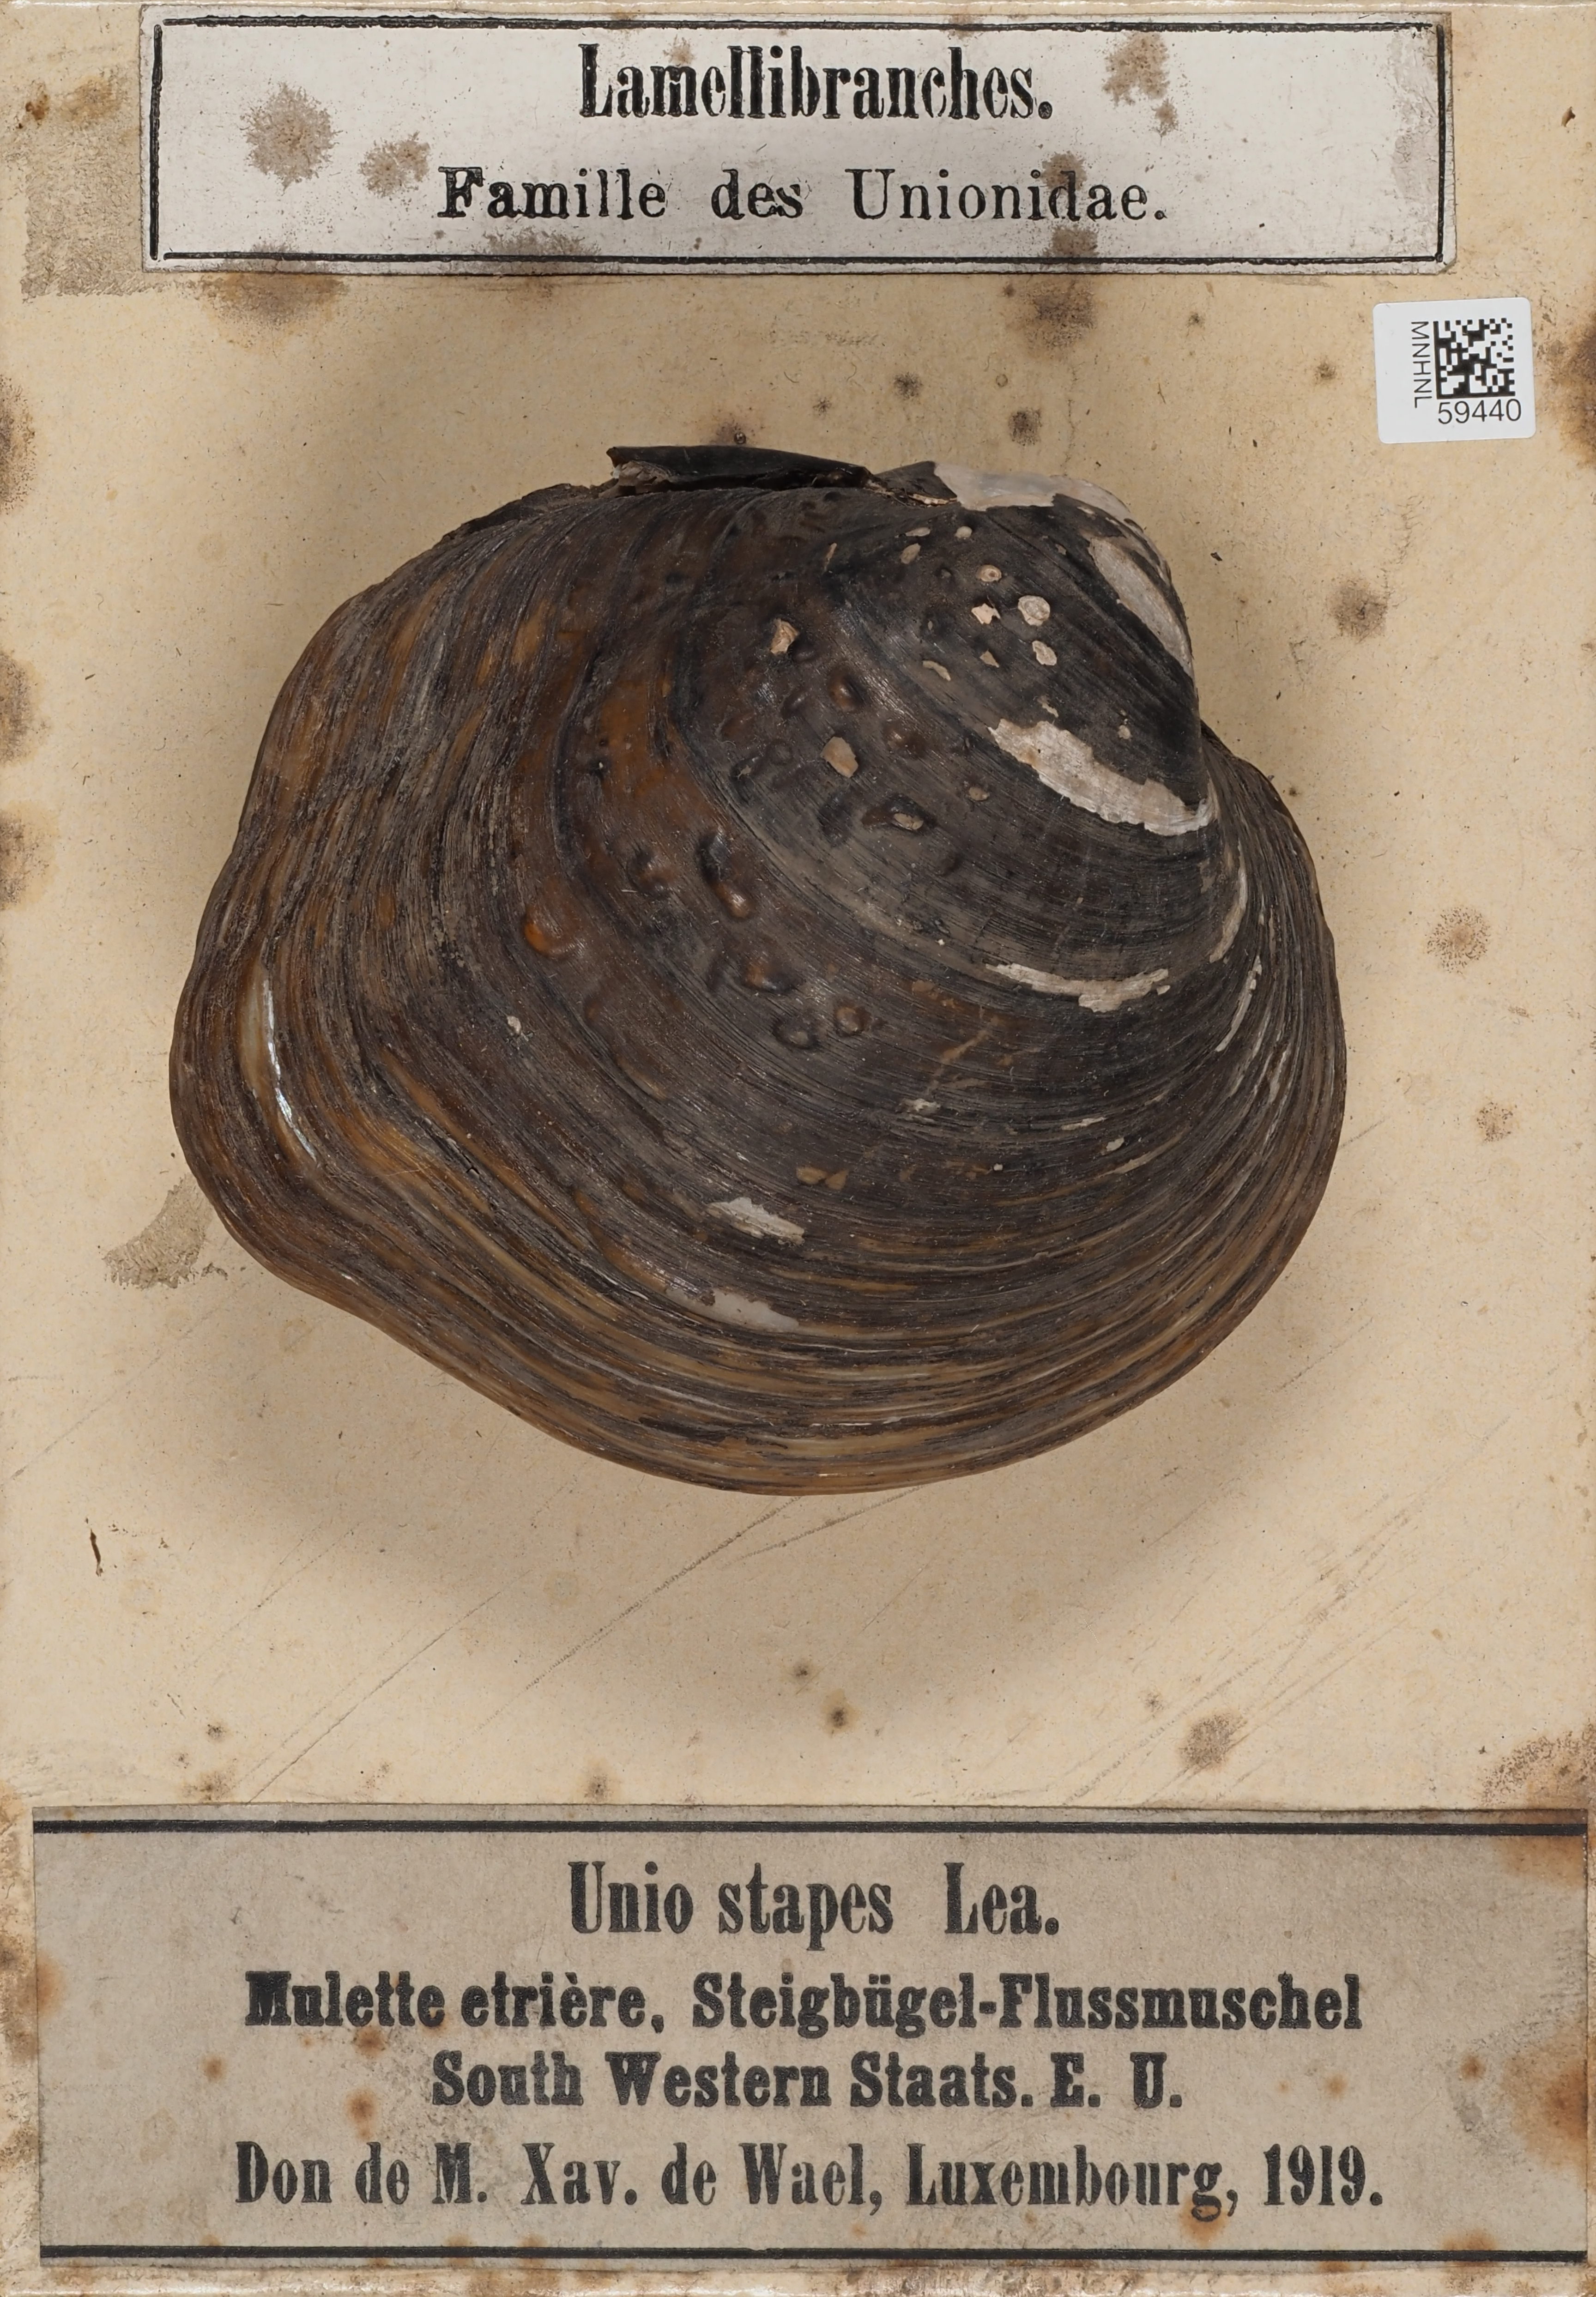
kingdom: Animalia
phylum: Mollusca
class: Bivalvia
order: Unionida
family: Unionidae
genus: Theliderma
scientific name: Theliderma stapes
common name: Stirrupshell
